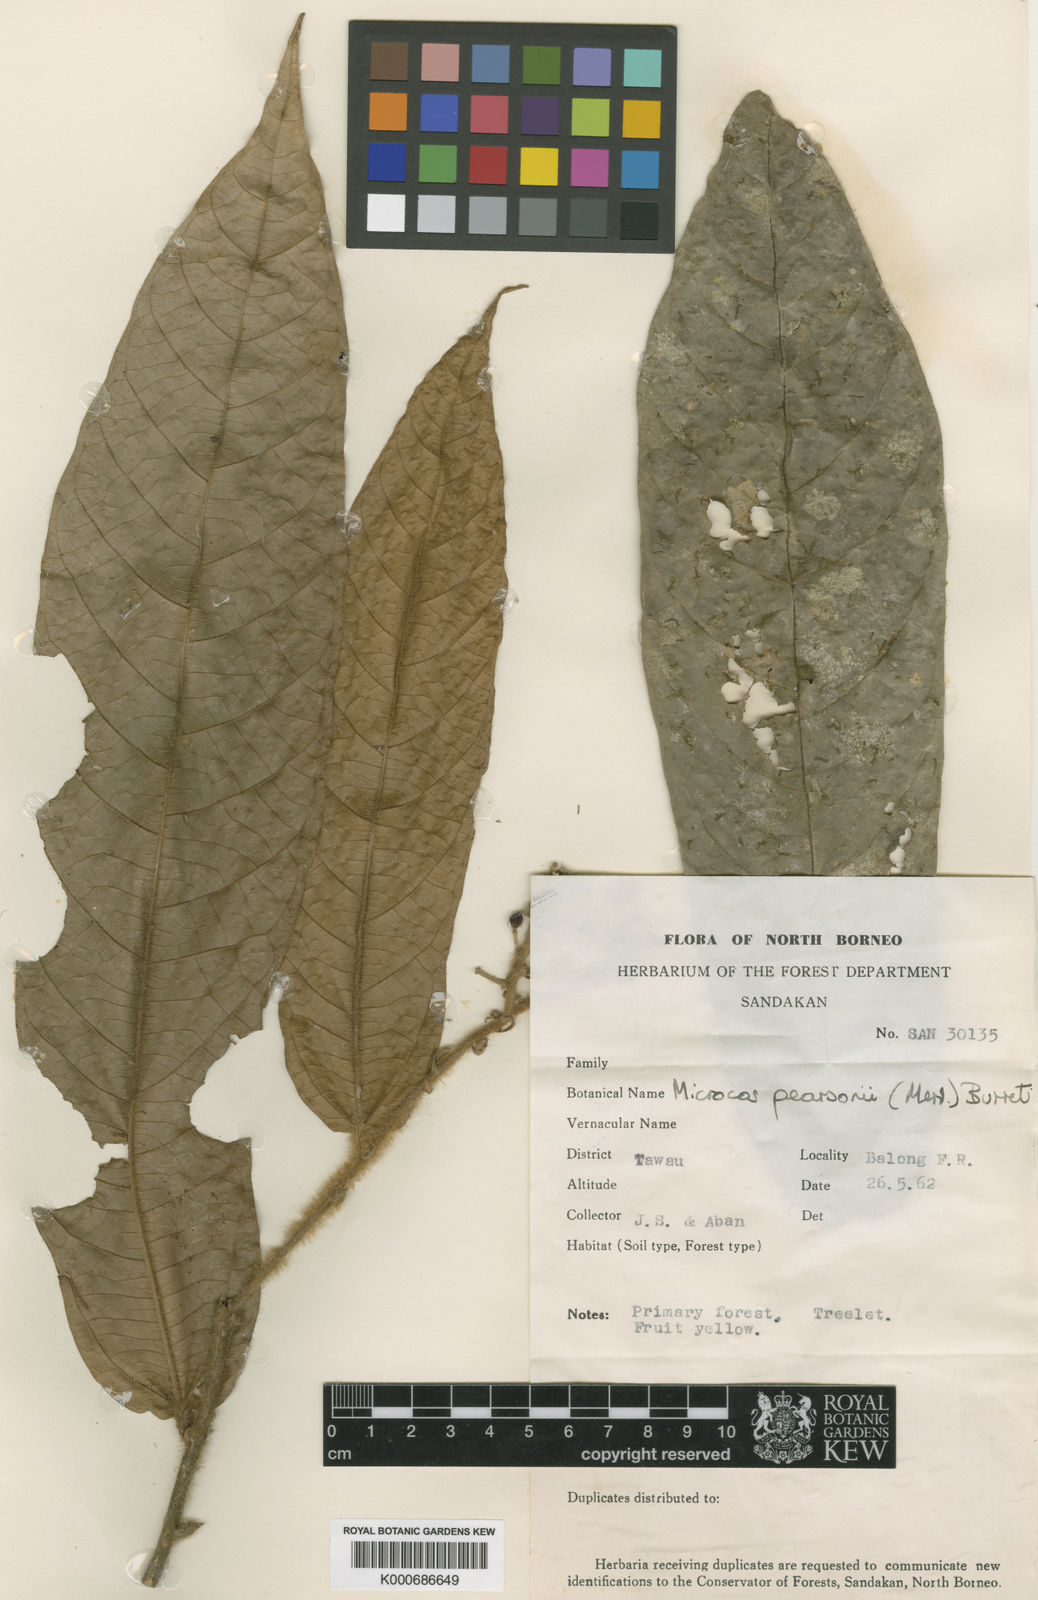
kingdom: Plantae
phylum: Tracheophyta
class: Magnoliopsida
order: Malvales
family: Malvaceae
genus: Microcos
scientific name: Microcos pearsonii
